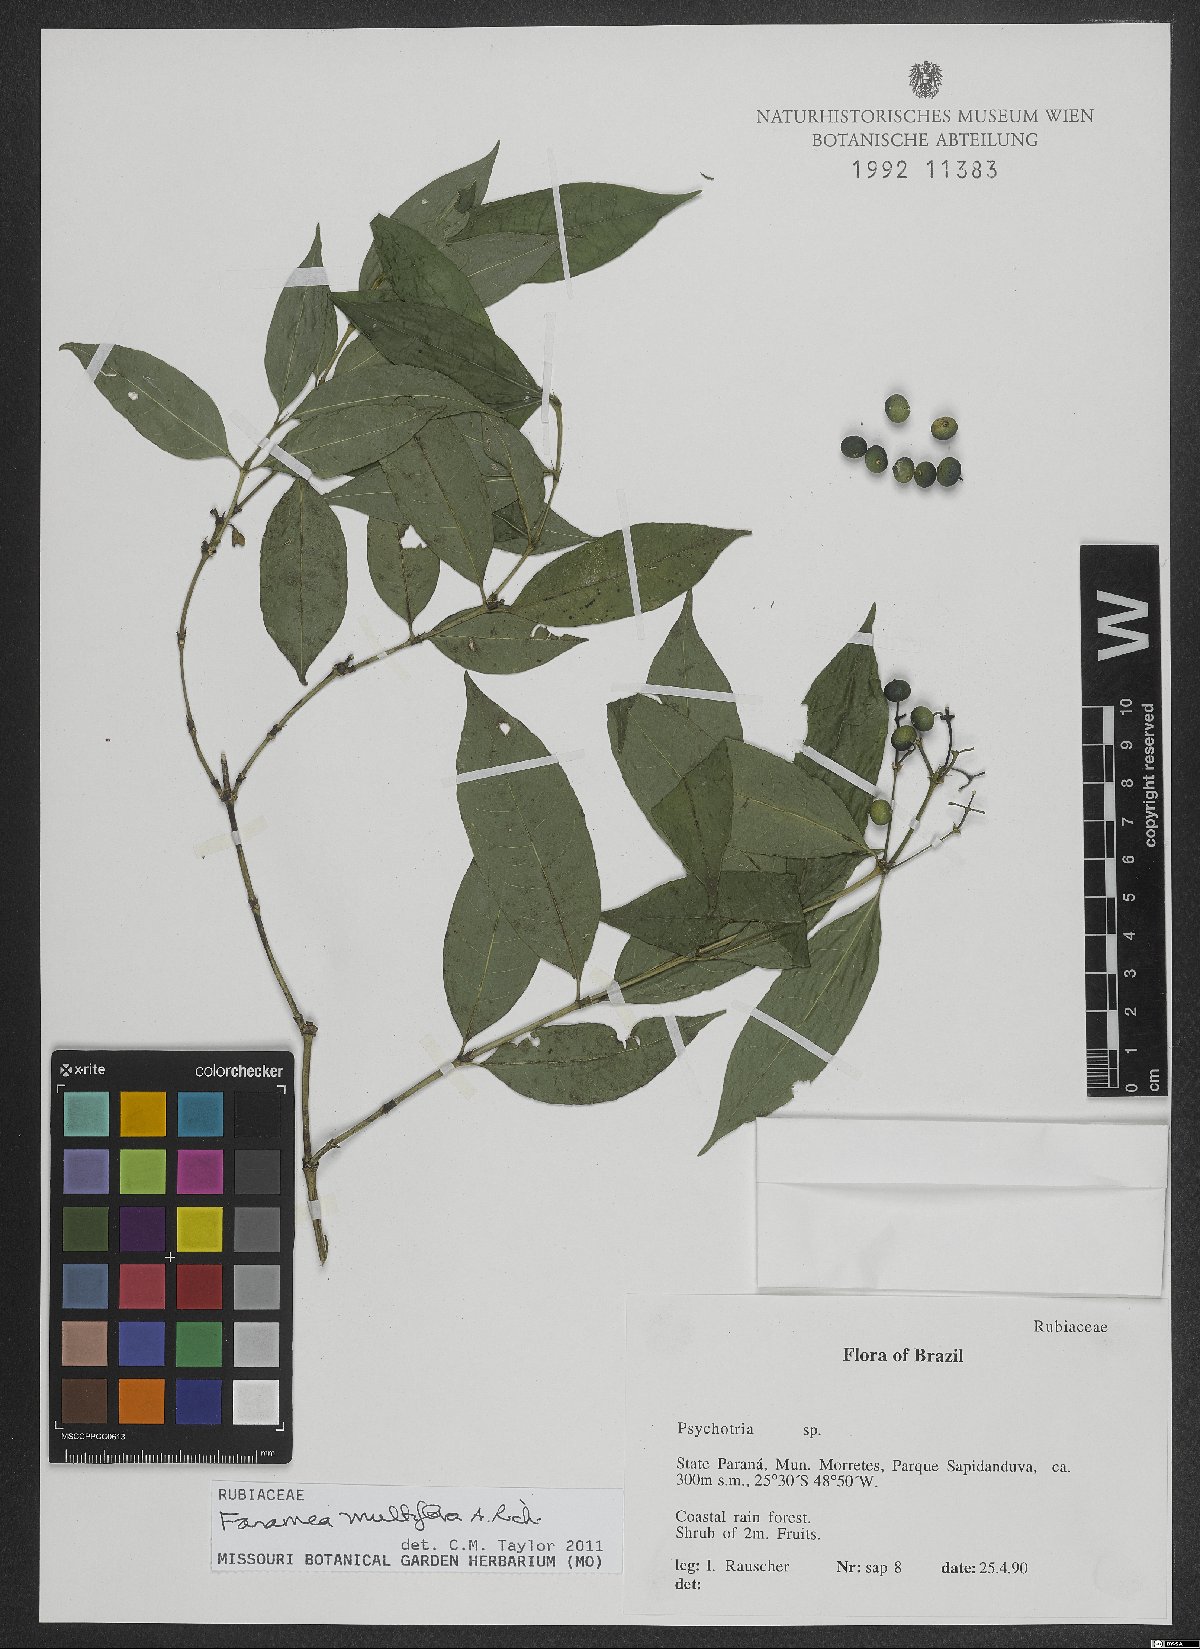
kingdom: Plantae
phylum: Tracheophyta
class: Magnoliopsida
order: Gentianales
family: Rubiaceae
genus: Faramea
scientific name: Faramea multiflora
